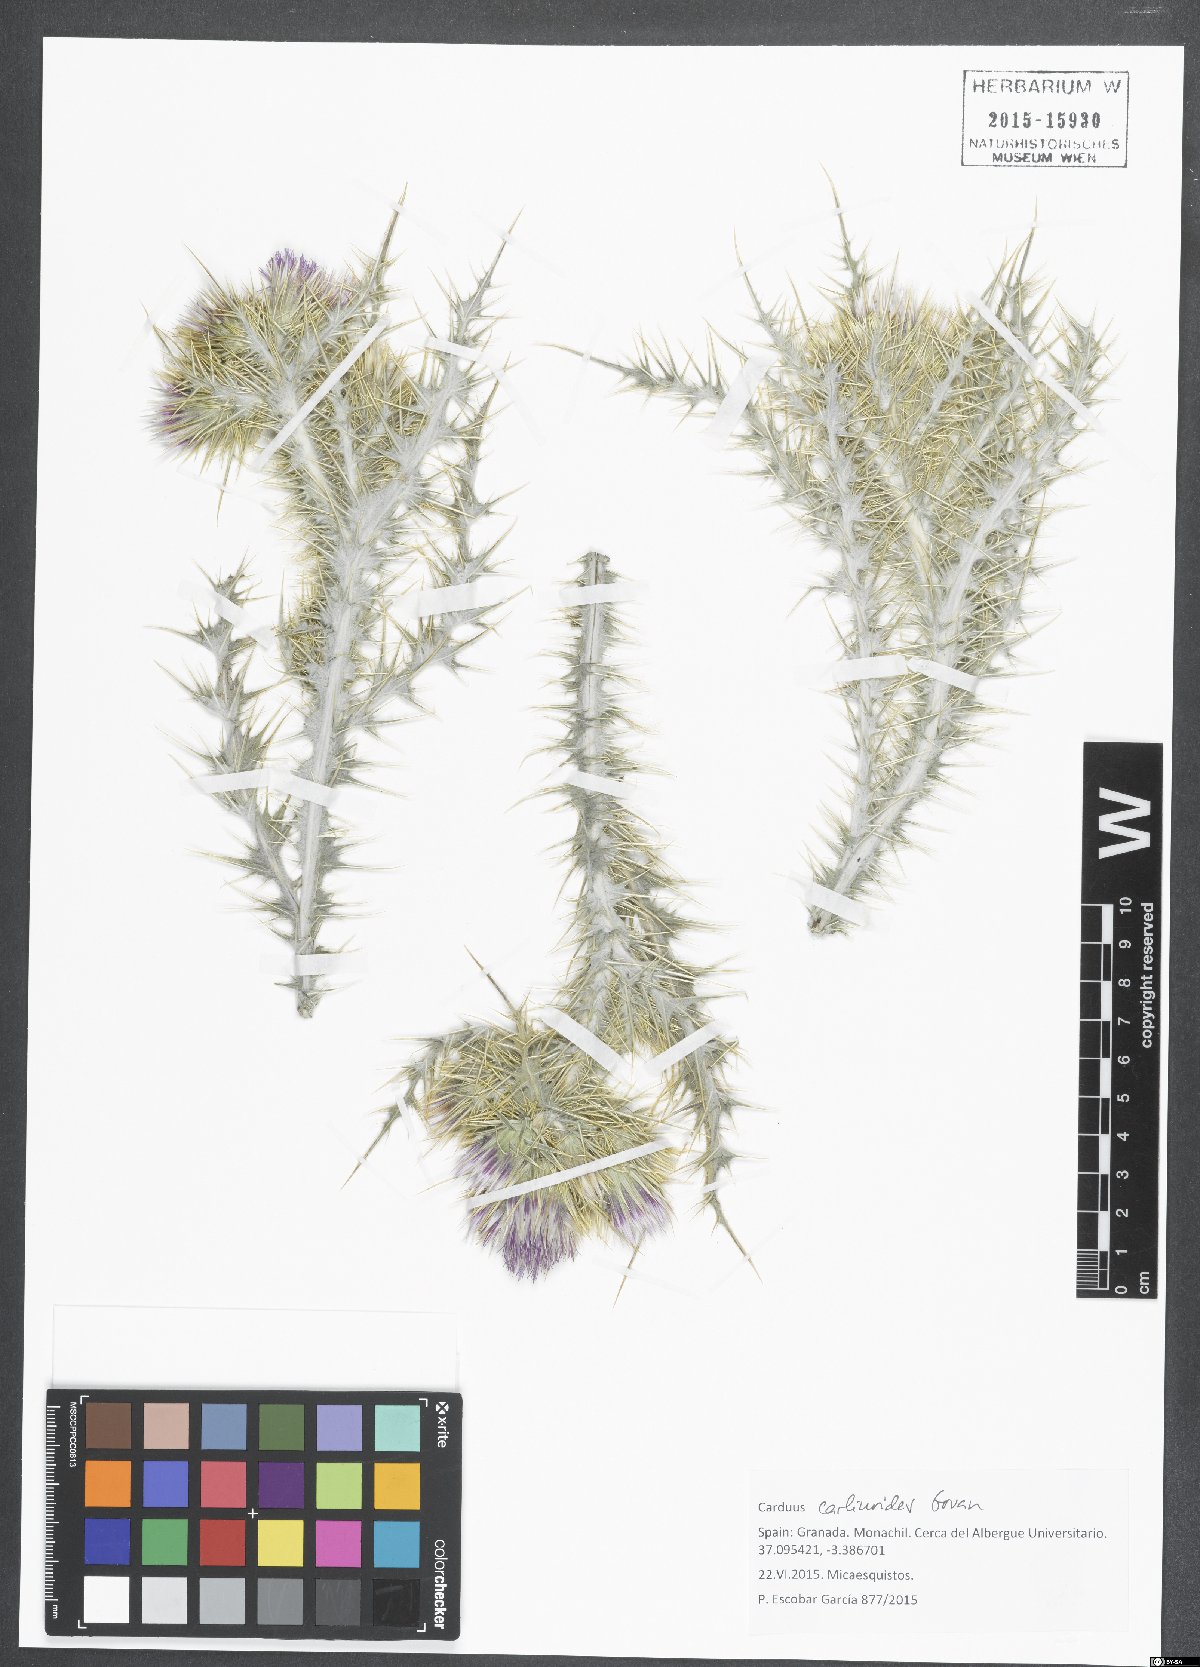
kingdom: Plantae
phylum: Tracheophyta
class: Magnoliopsida
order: Asterales
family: Asteraceae
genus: Carduus
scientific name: Carduus carlinoides
